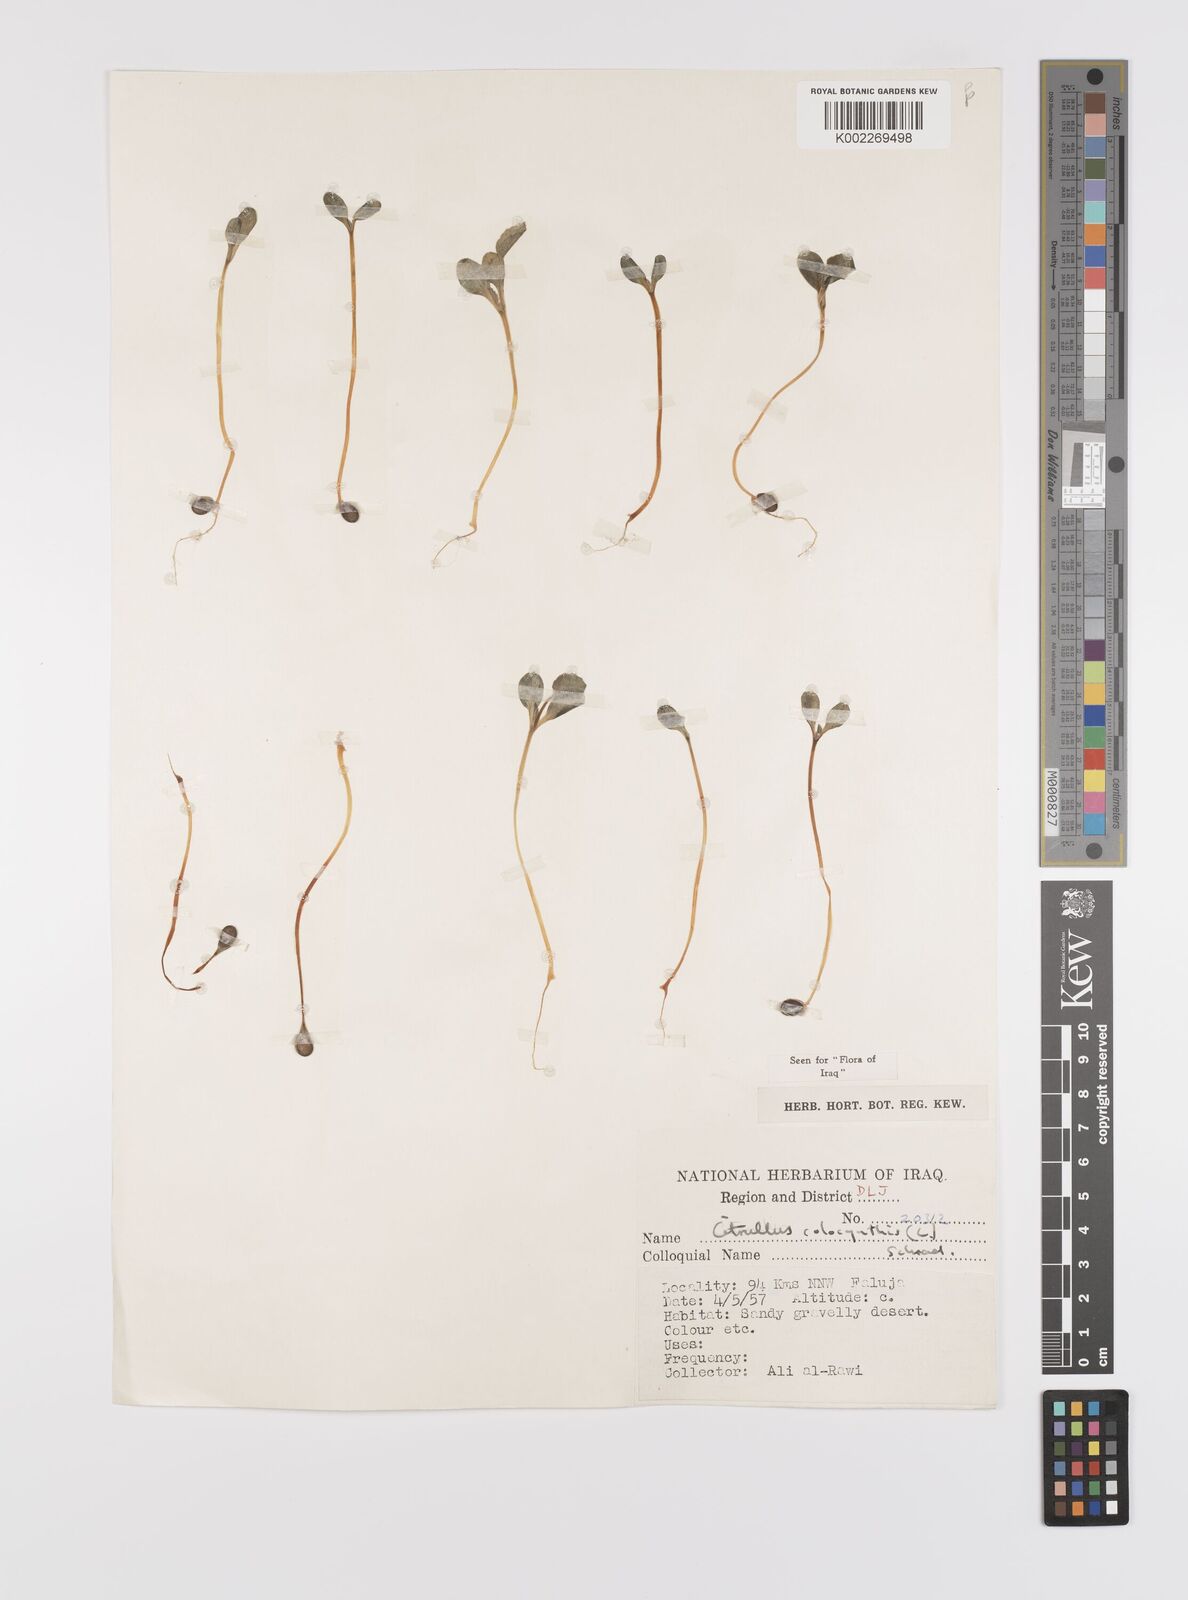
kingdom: Plantae
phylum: Tracheophyta
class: Magnoliopsida
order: Cucurbitales
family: Cucurbitaceae
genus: Citrullus
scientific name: Citrullus colocynthis
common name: Colocynth
